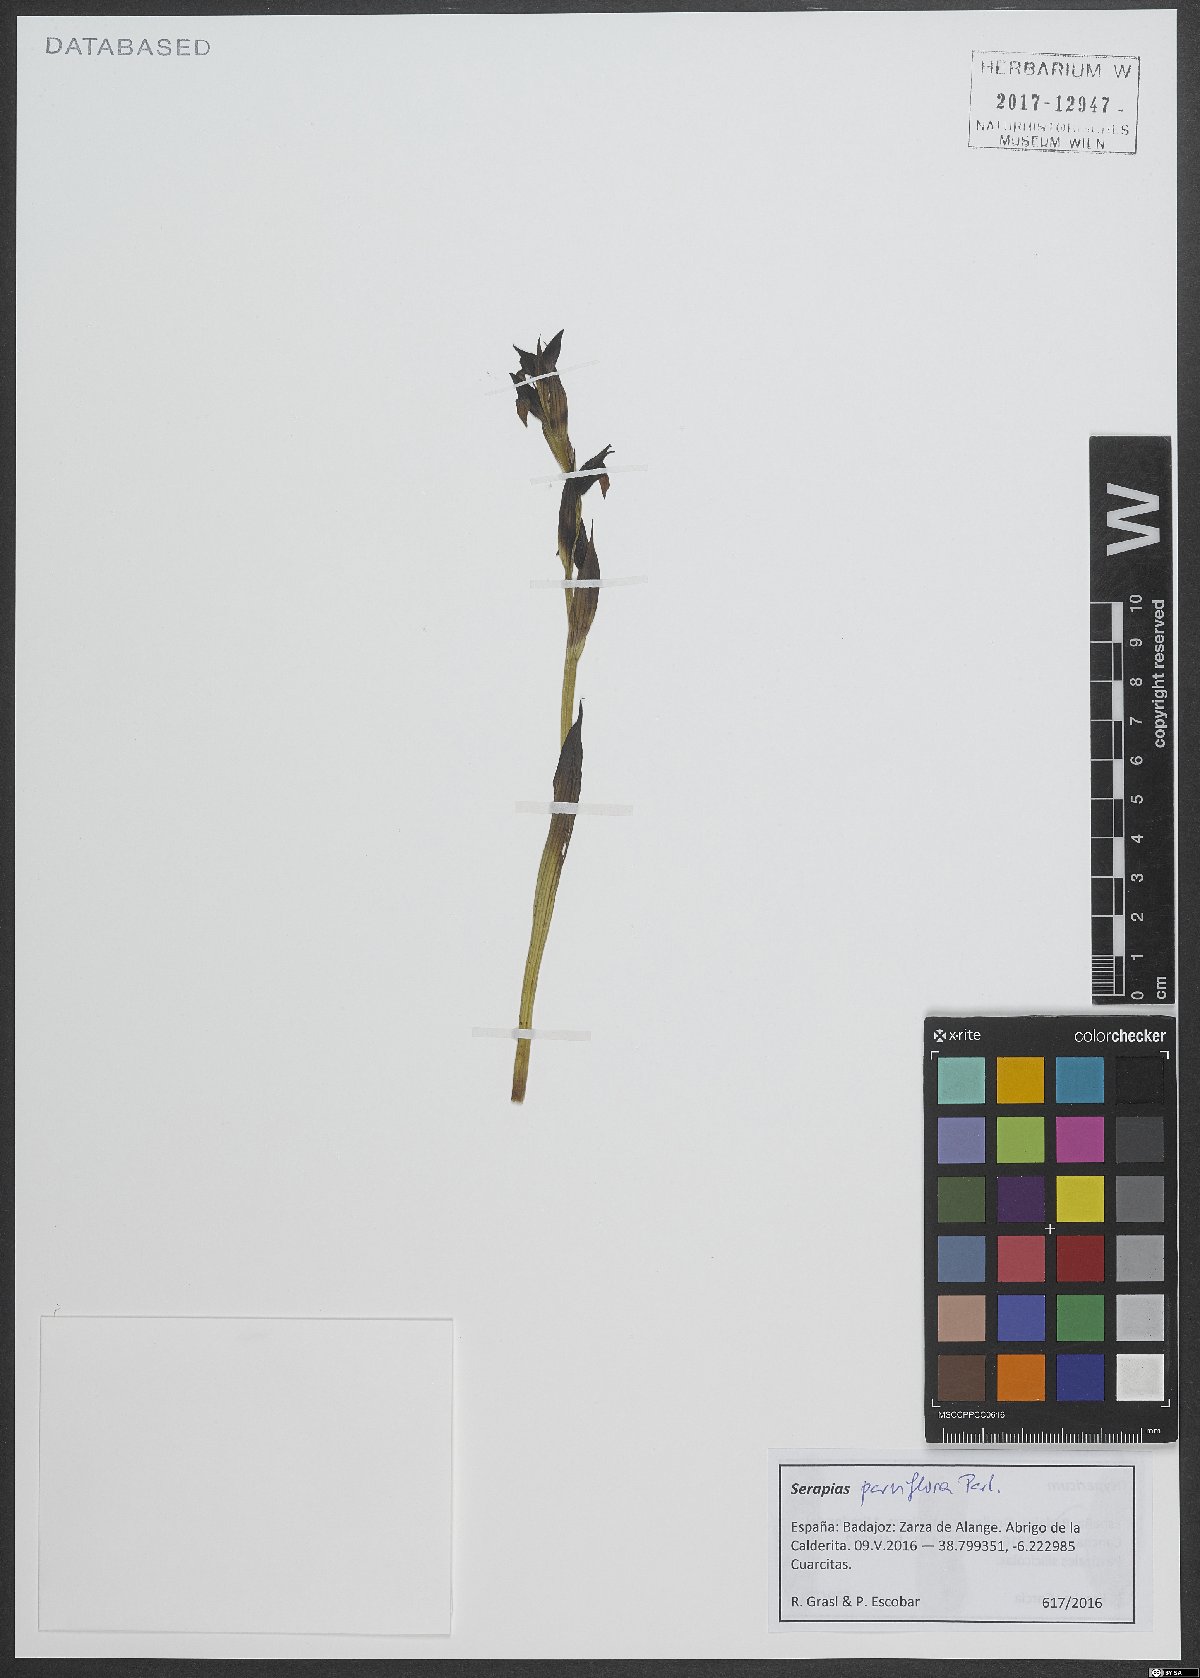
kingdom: Plantae
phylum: Tracheophyta
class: Liliopsida
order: Asparagales
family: Orchidaceae
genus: Serapias
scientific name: Serapias parviflora
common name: Small-flowered tongue-orchid
